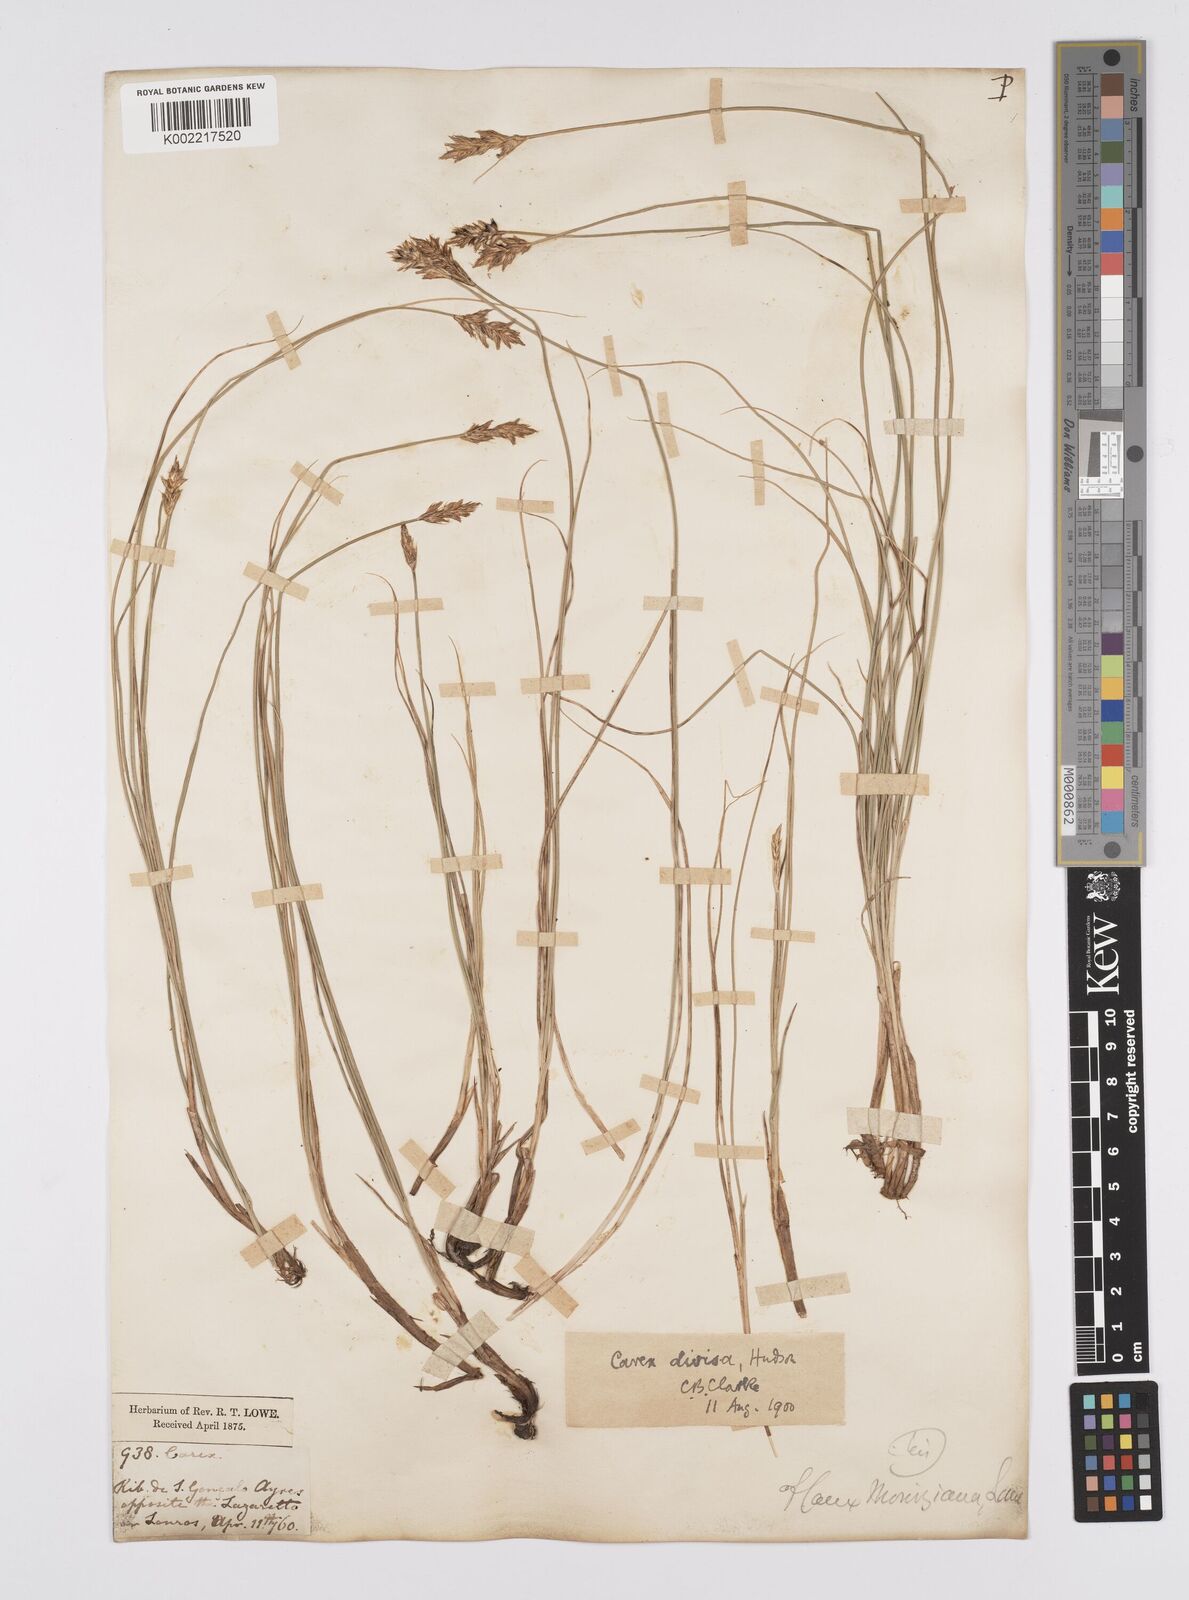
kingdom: Plantae
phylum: Tracheophyta
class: Liliopsida
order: Poales
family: Cyperaceae
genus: Carex
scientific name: Carex divisa
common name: Divided sedge
